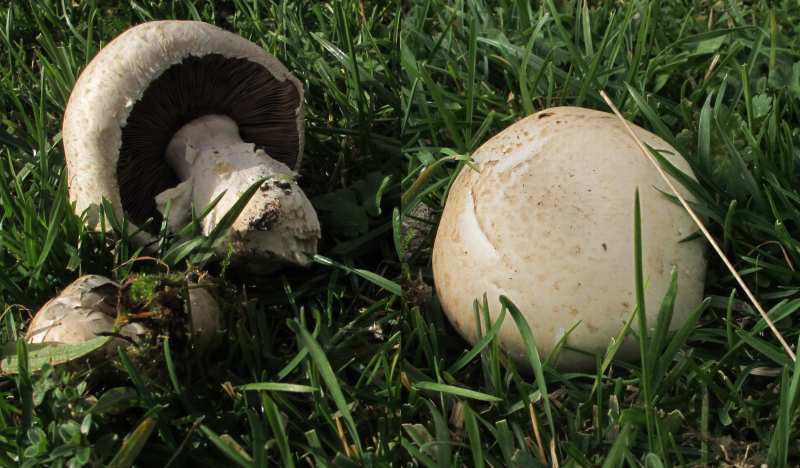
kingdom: Fungi
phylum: Basidiomycota
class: Agaricomycetes
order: Agaricales
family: Agaricaceae
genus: Agaricus
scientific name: Agaricus litoralis
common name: kyst-champignon
